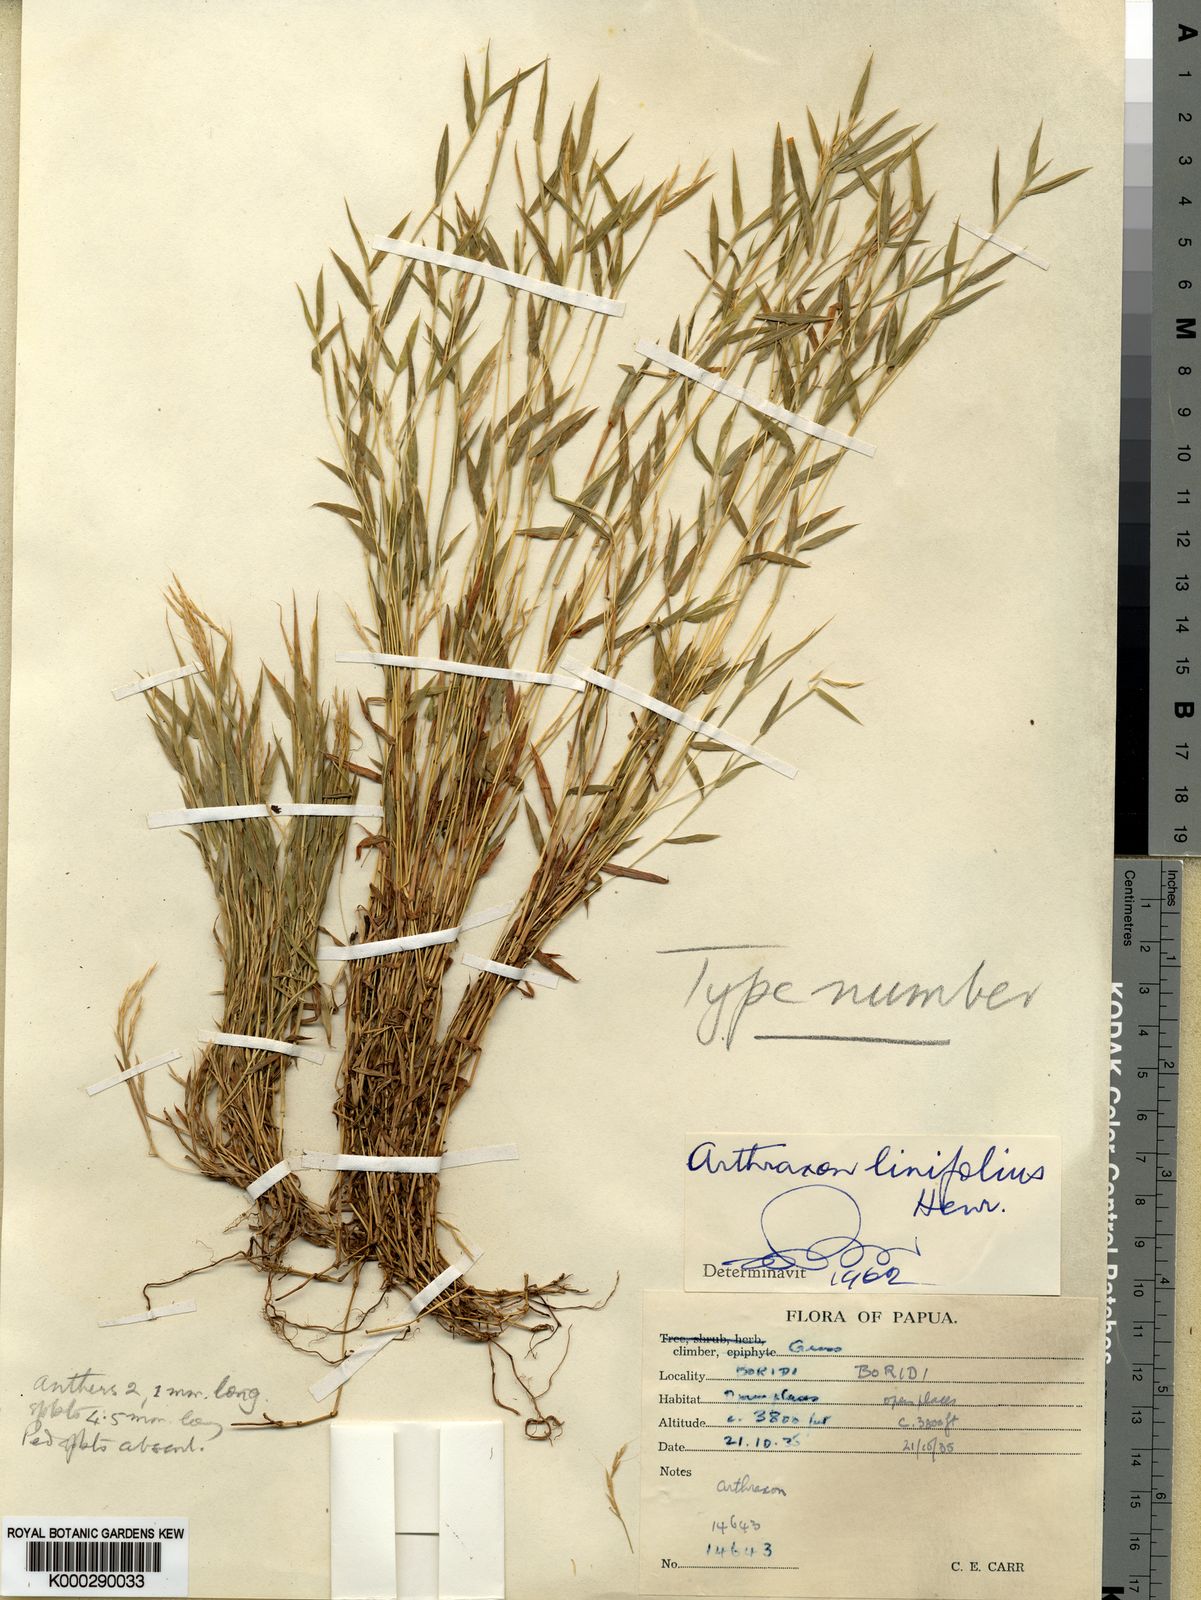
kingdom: Plantae
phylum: Tracheophyta
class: Liliopsida
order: Poales
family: Poaceae
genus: Arthraxon
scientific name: Arthraxon hispidus
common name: Small carpgrass
